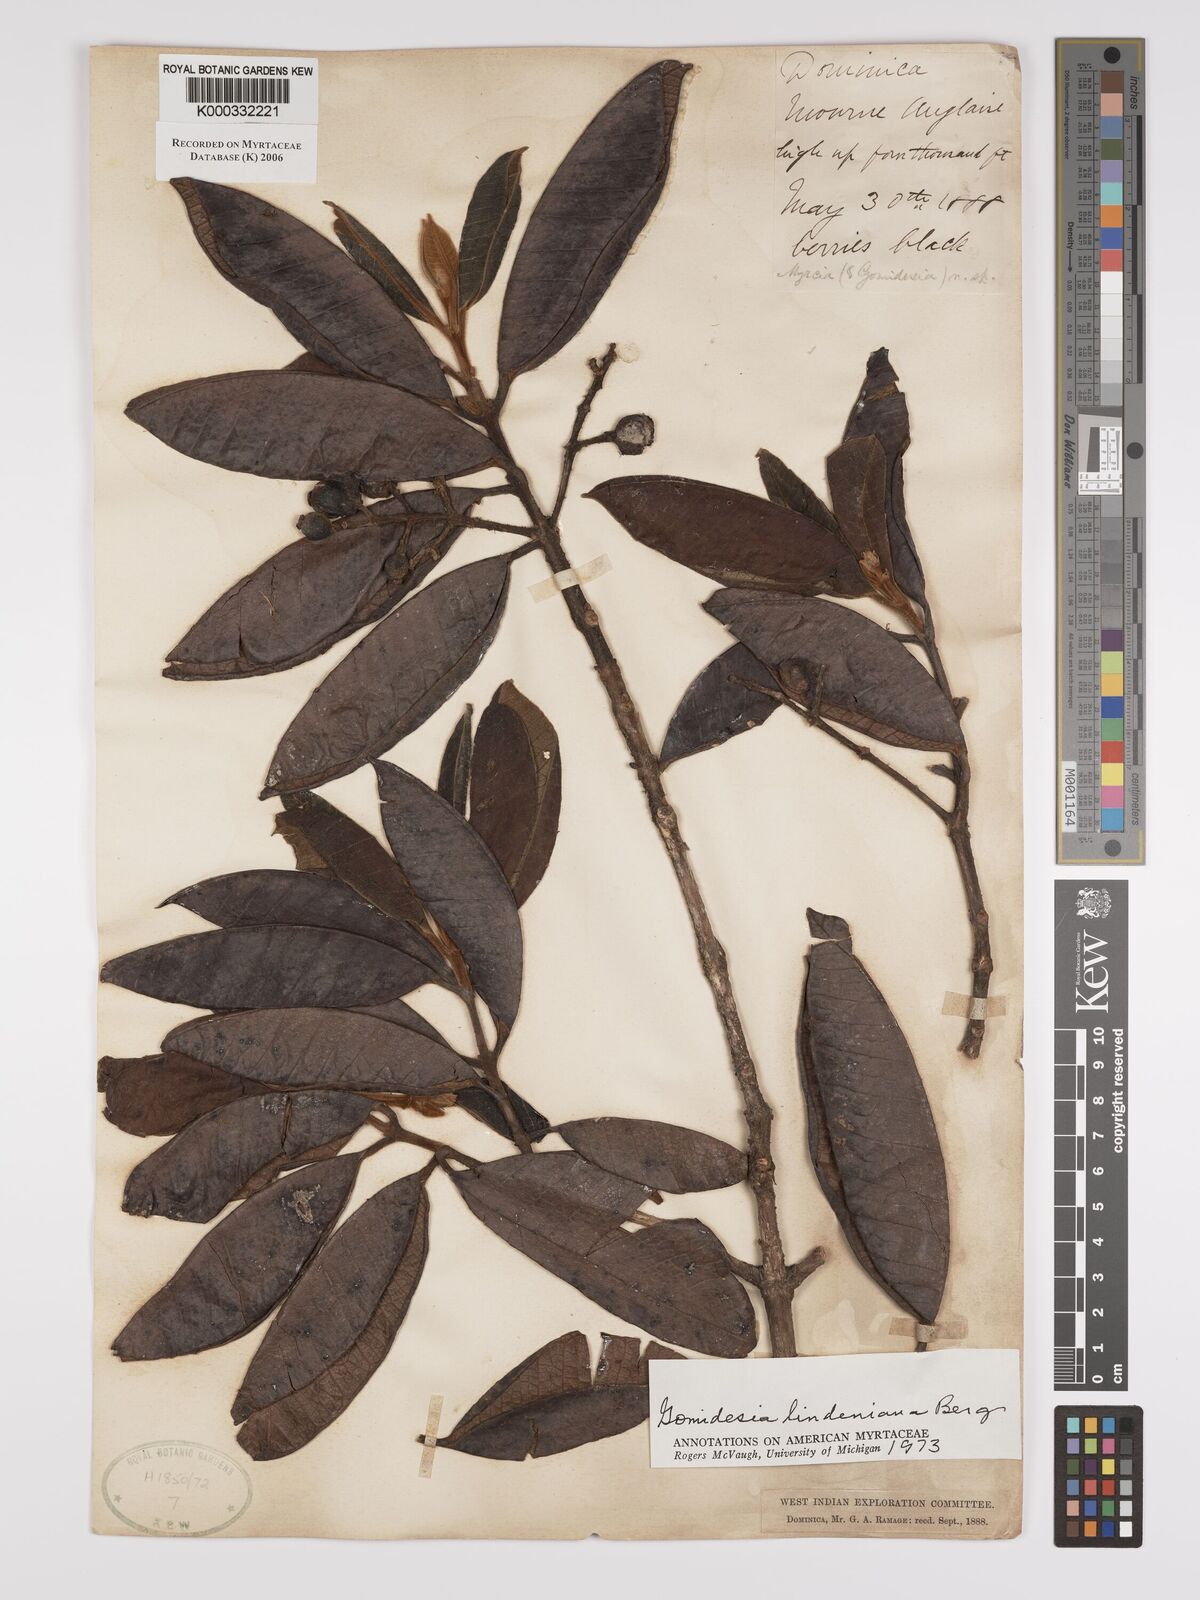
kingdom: Plantae
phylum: Tracheophyta
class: Magnoliopsida
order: Myrtales
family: Myrtaceae
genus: Myrcia
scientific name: Myrcia fenzliana
